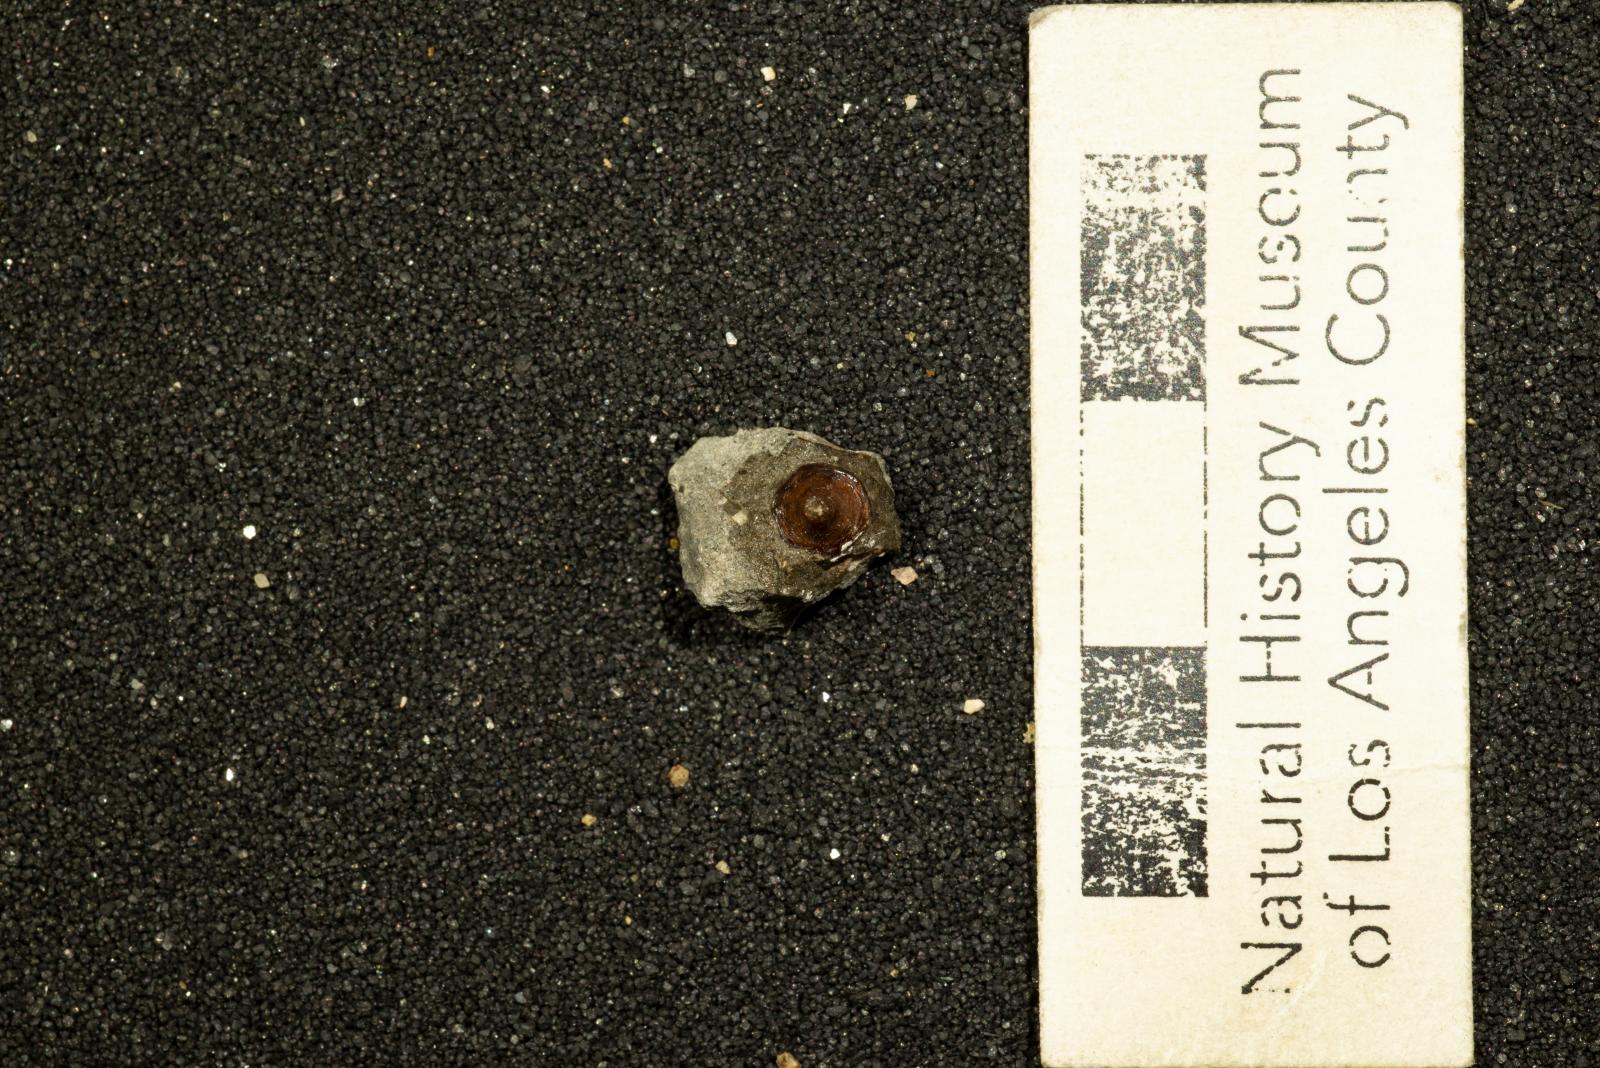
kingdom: Animalia
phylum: Mollusca
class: Gastropoda
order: Siphonariida
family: Siphonariidae
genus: Anisomyon
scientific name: Anisomyon
